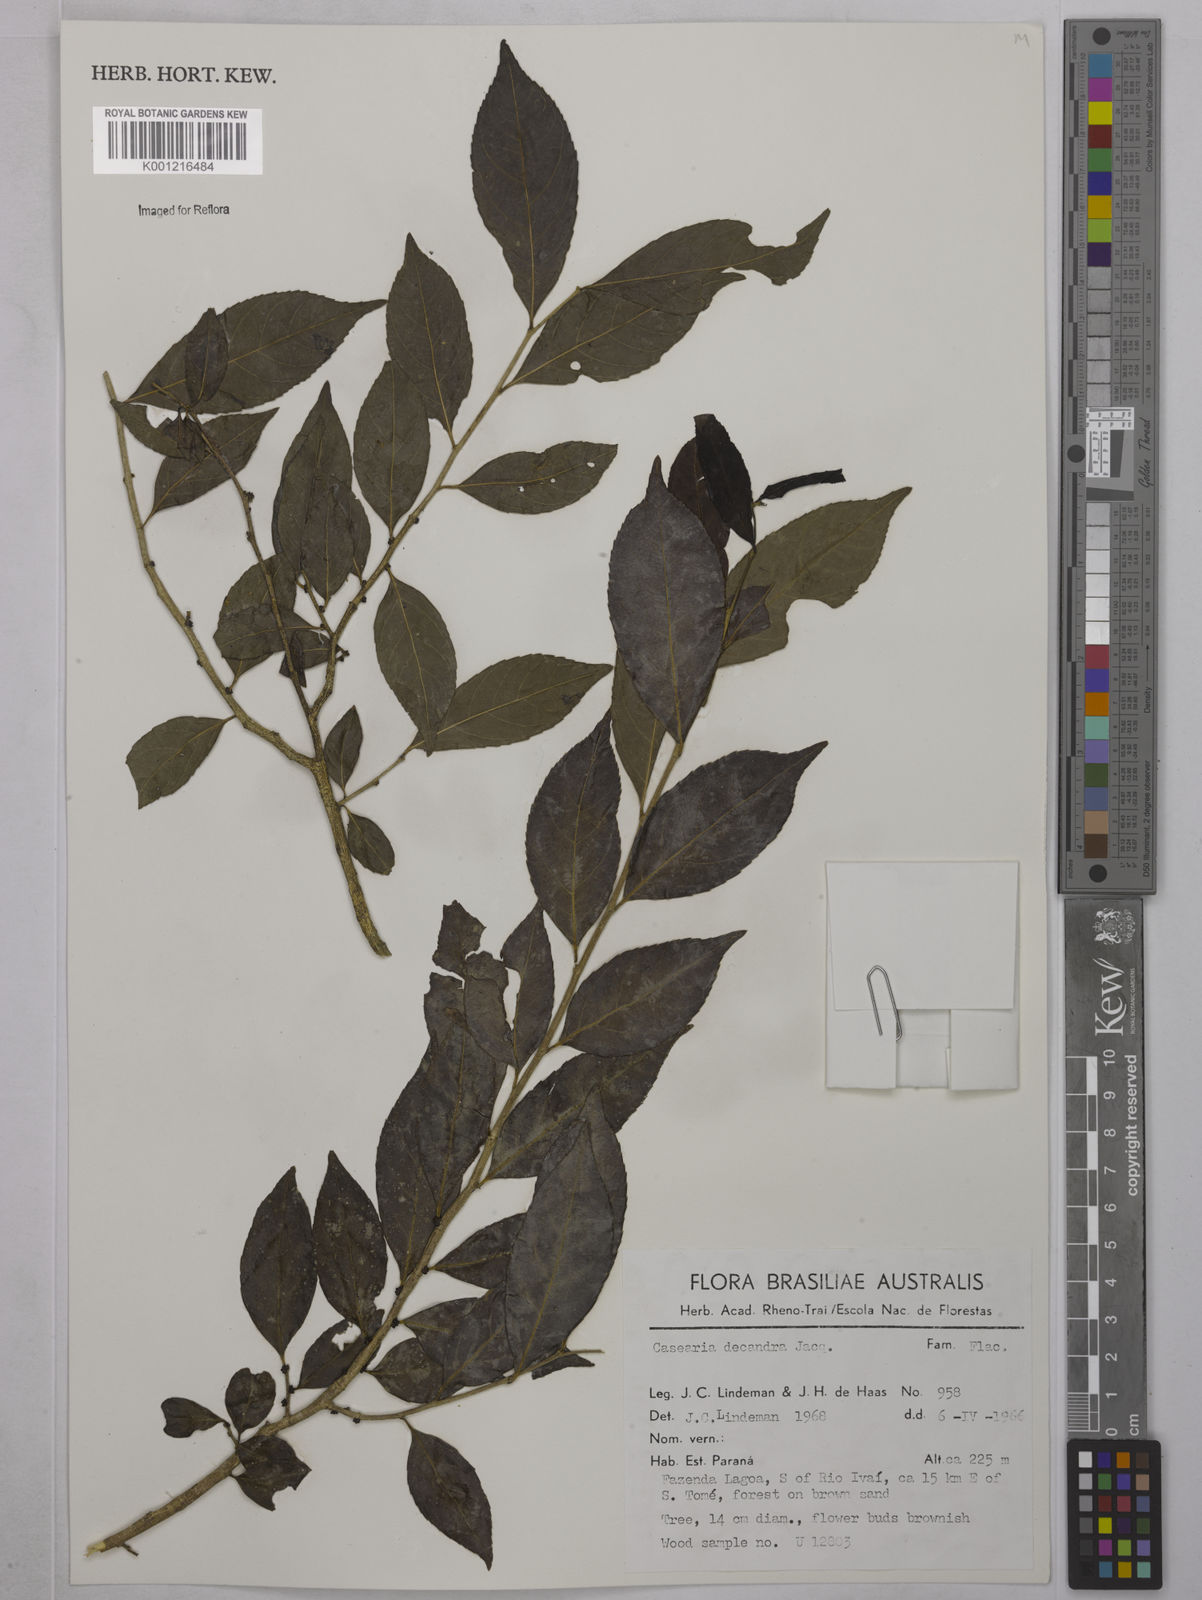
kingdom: Plantae
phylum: Tracheophyta
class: Magnoliopsida
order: Malpighiales
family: Salicaceae
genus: Casearia
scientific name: Casearia decandra
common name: Crack open
